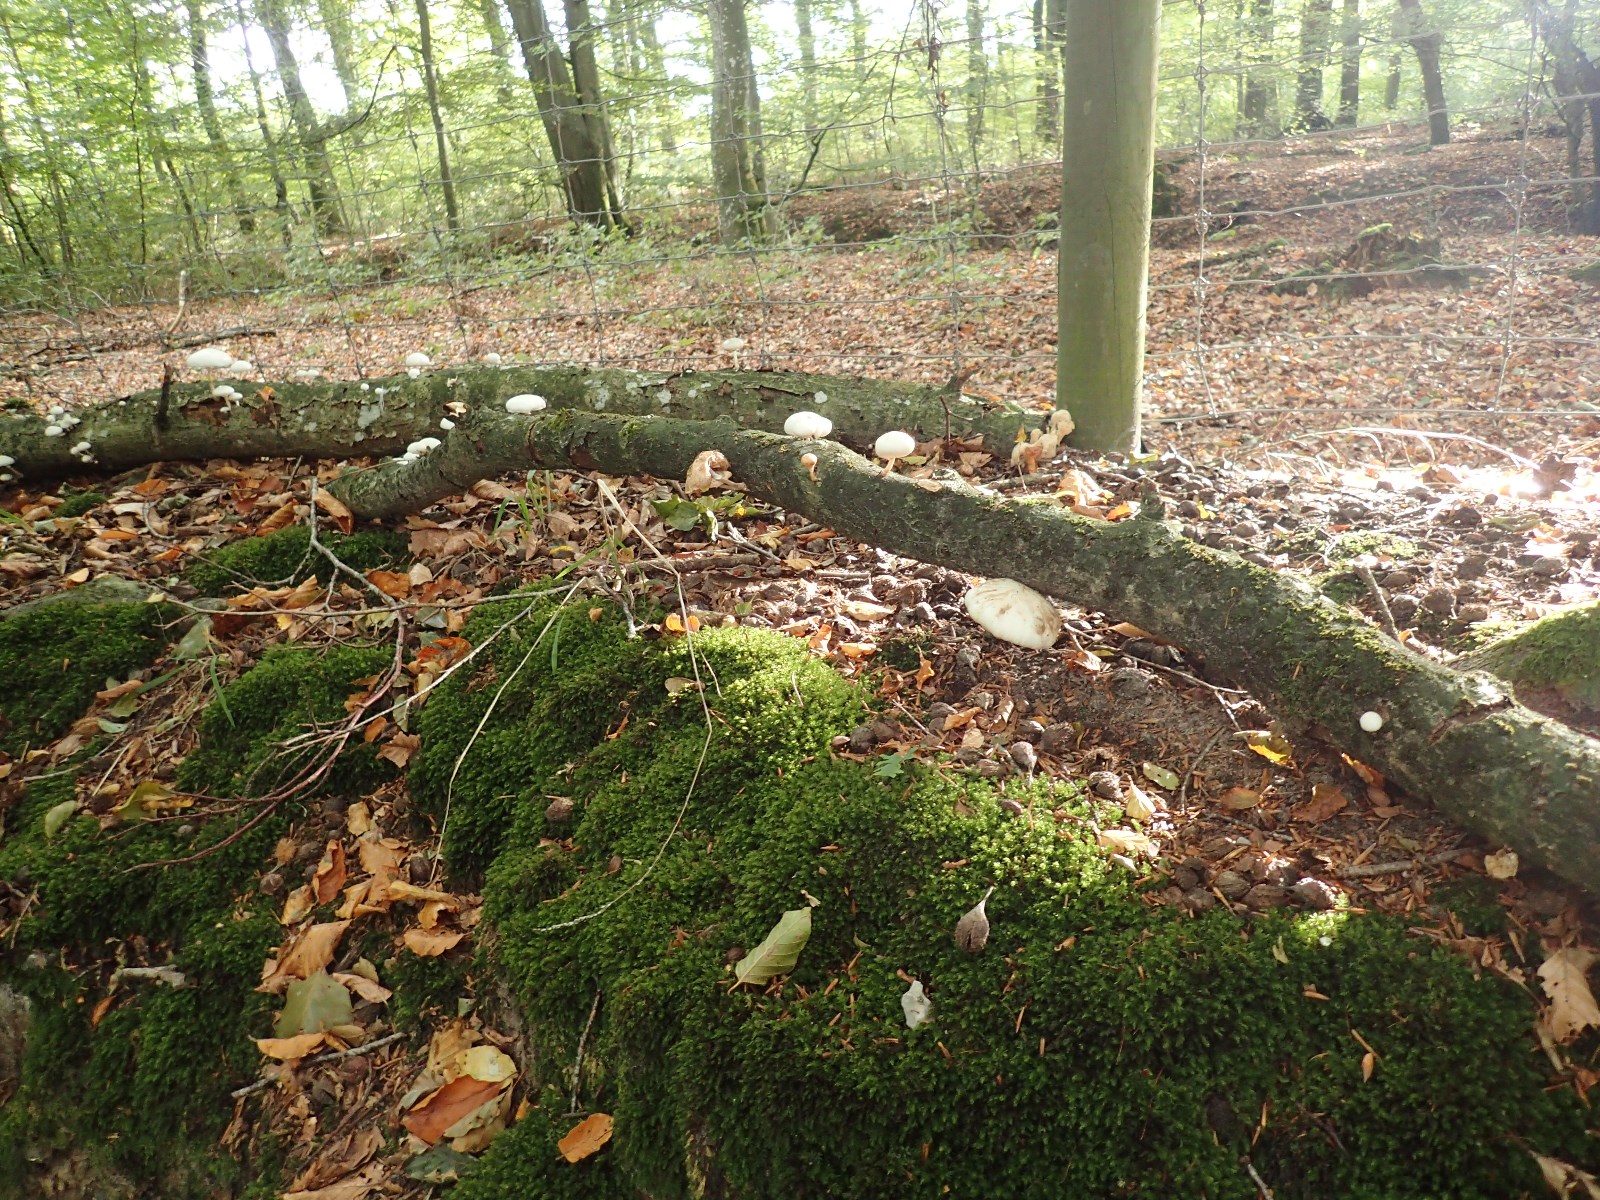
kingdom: Fungi
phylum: Basidiomycota
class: Agaricomycetes
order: Agaricales
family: Physalacriaceae
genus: Mucidula
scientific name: Mucidula mucida
